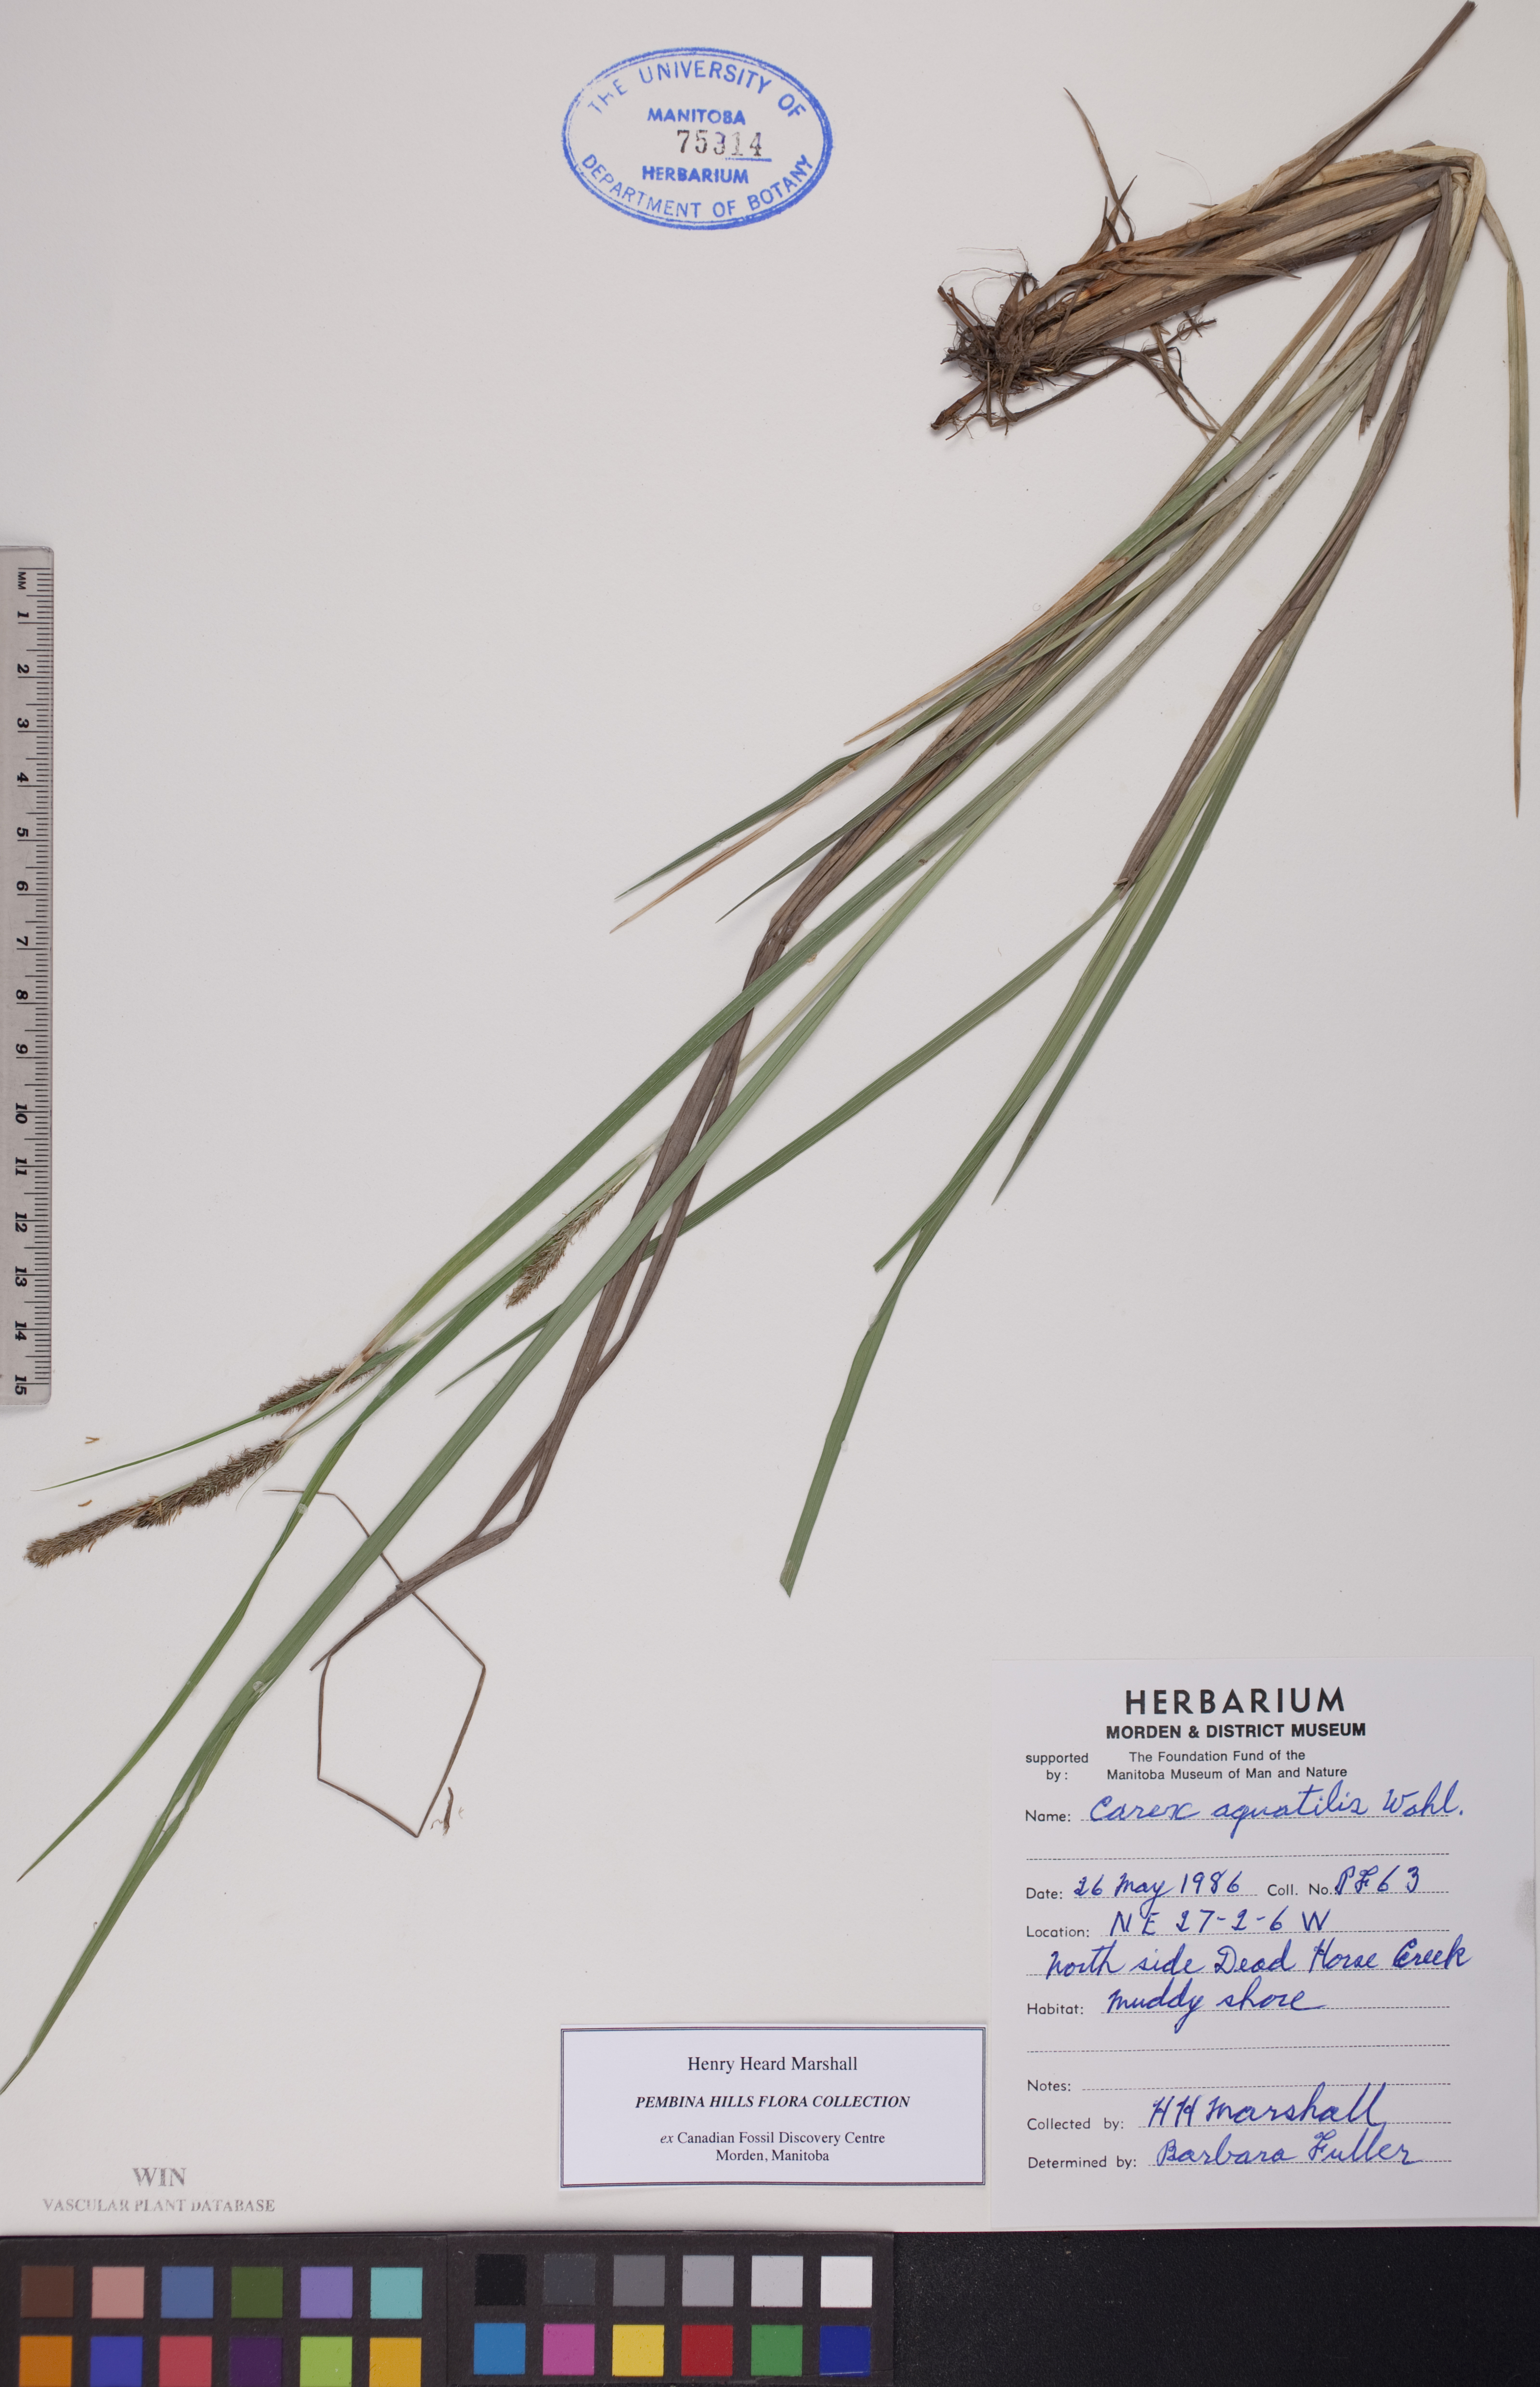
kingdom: Plantae
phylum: Tracheophyta
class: Liliopsida
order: Poales
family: Cyperaceae
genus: Carex
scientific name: Carex aquatilis
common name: Water sedge
